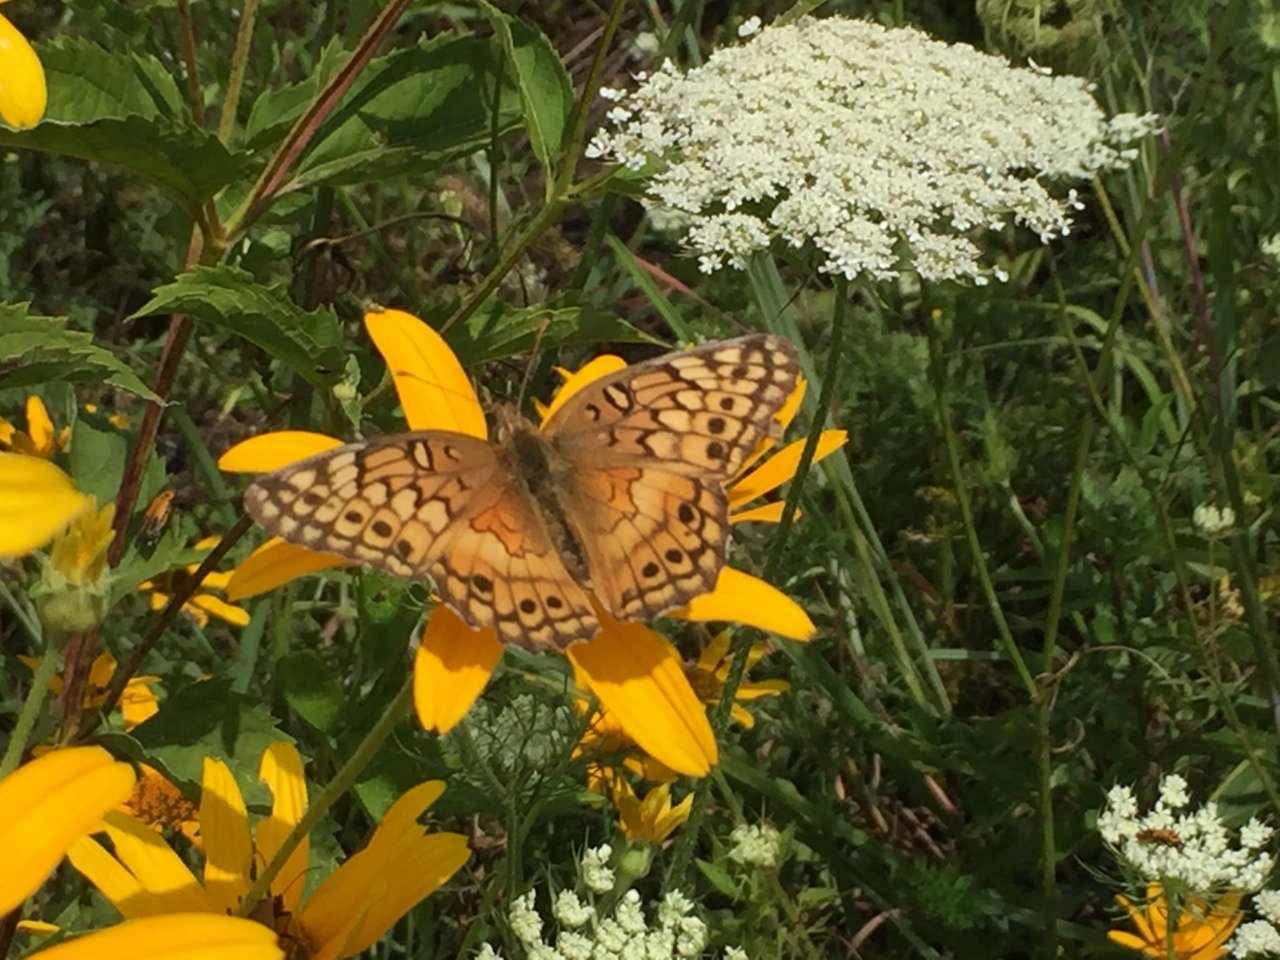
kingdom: Animalia
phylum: Arthropoda
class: Insecta
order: Lepidoptera
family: Nymphalidae
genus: Euptoieta
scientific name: Euptoieta claudia
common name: Variegated Fritillary
